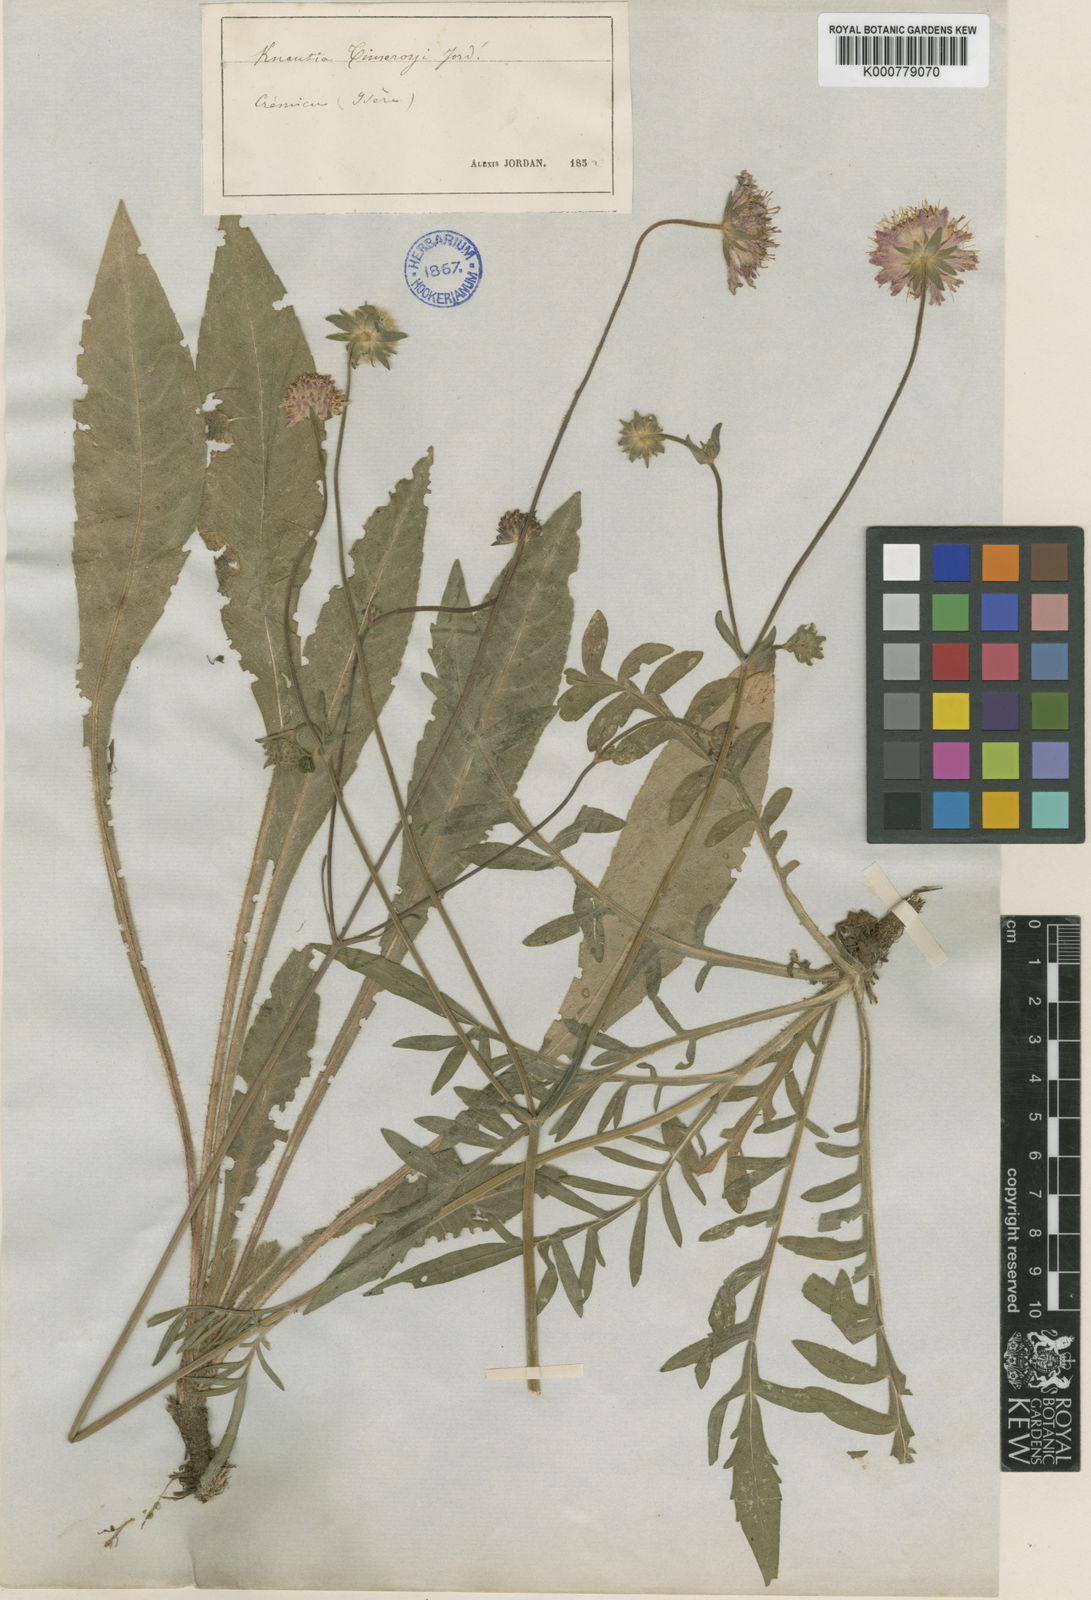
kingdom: Plantae
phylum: Tracheophyta
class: Magnoliopsida
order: Dipsacales
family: Caprifoliaceae
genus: Knautia
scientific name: Knautia arvensis
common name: Field scabiosa
